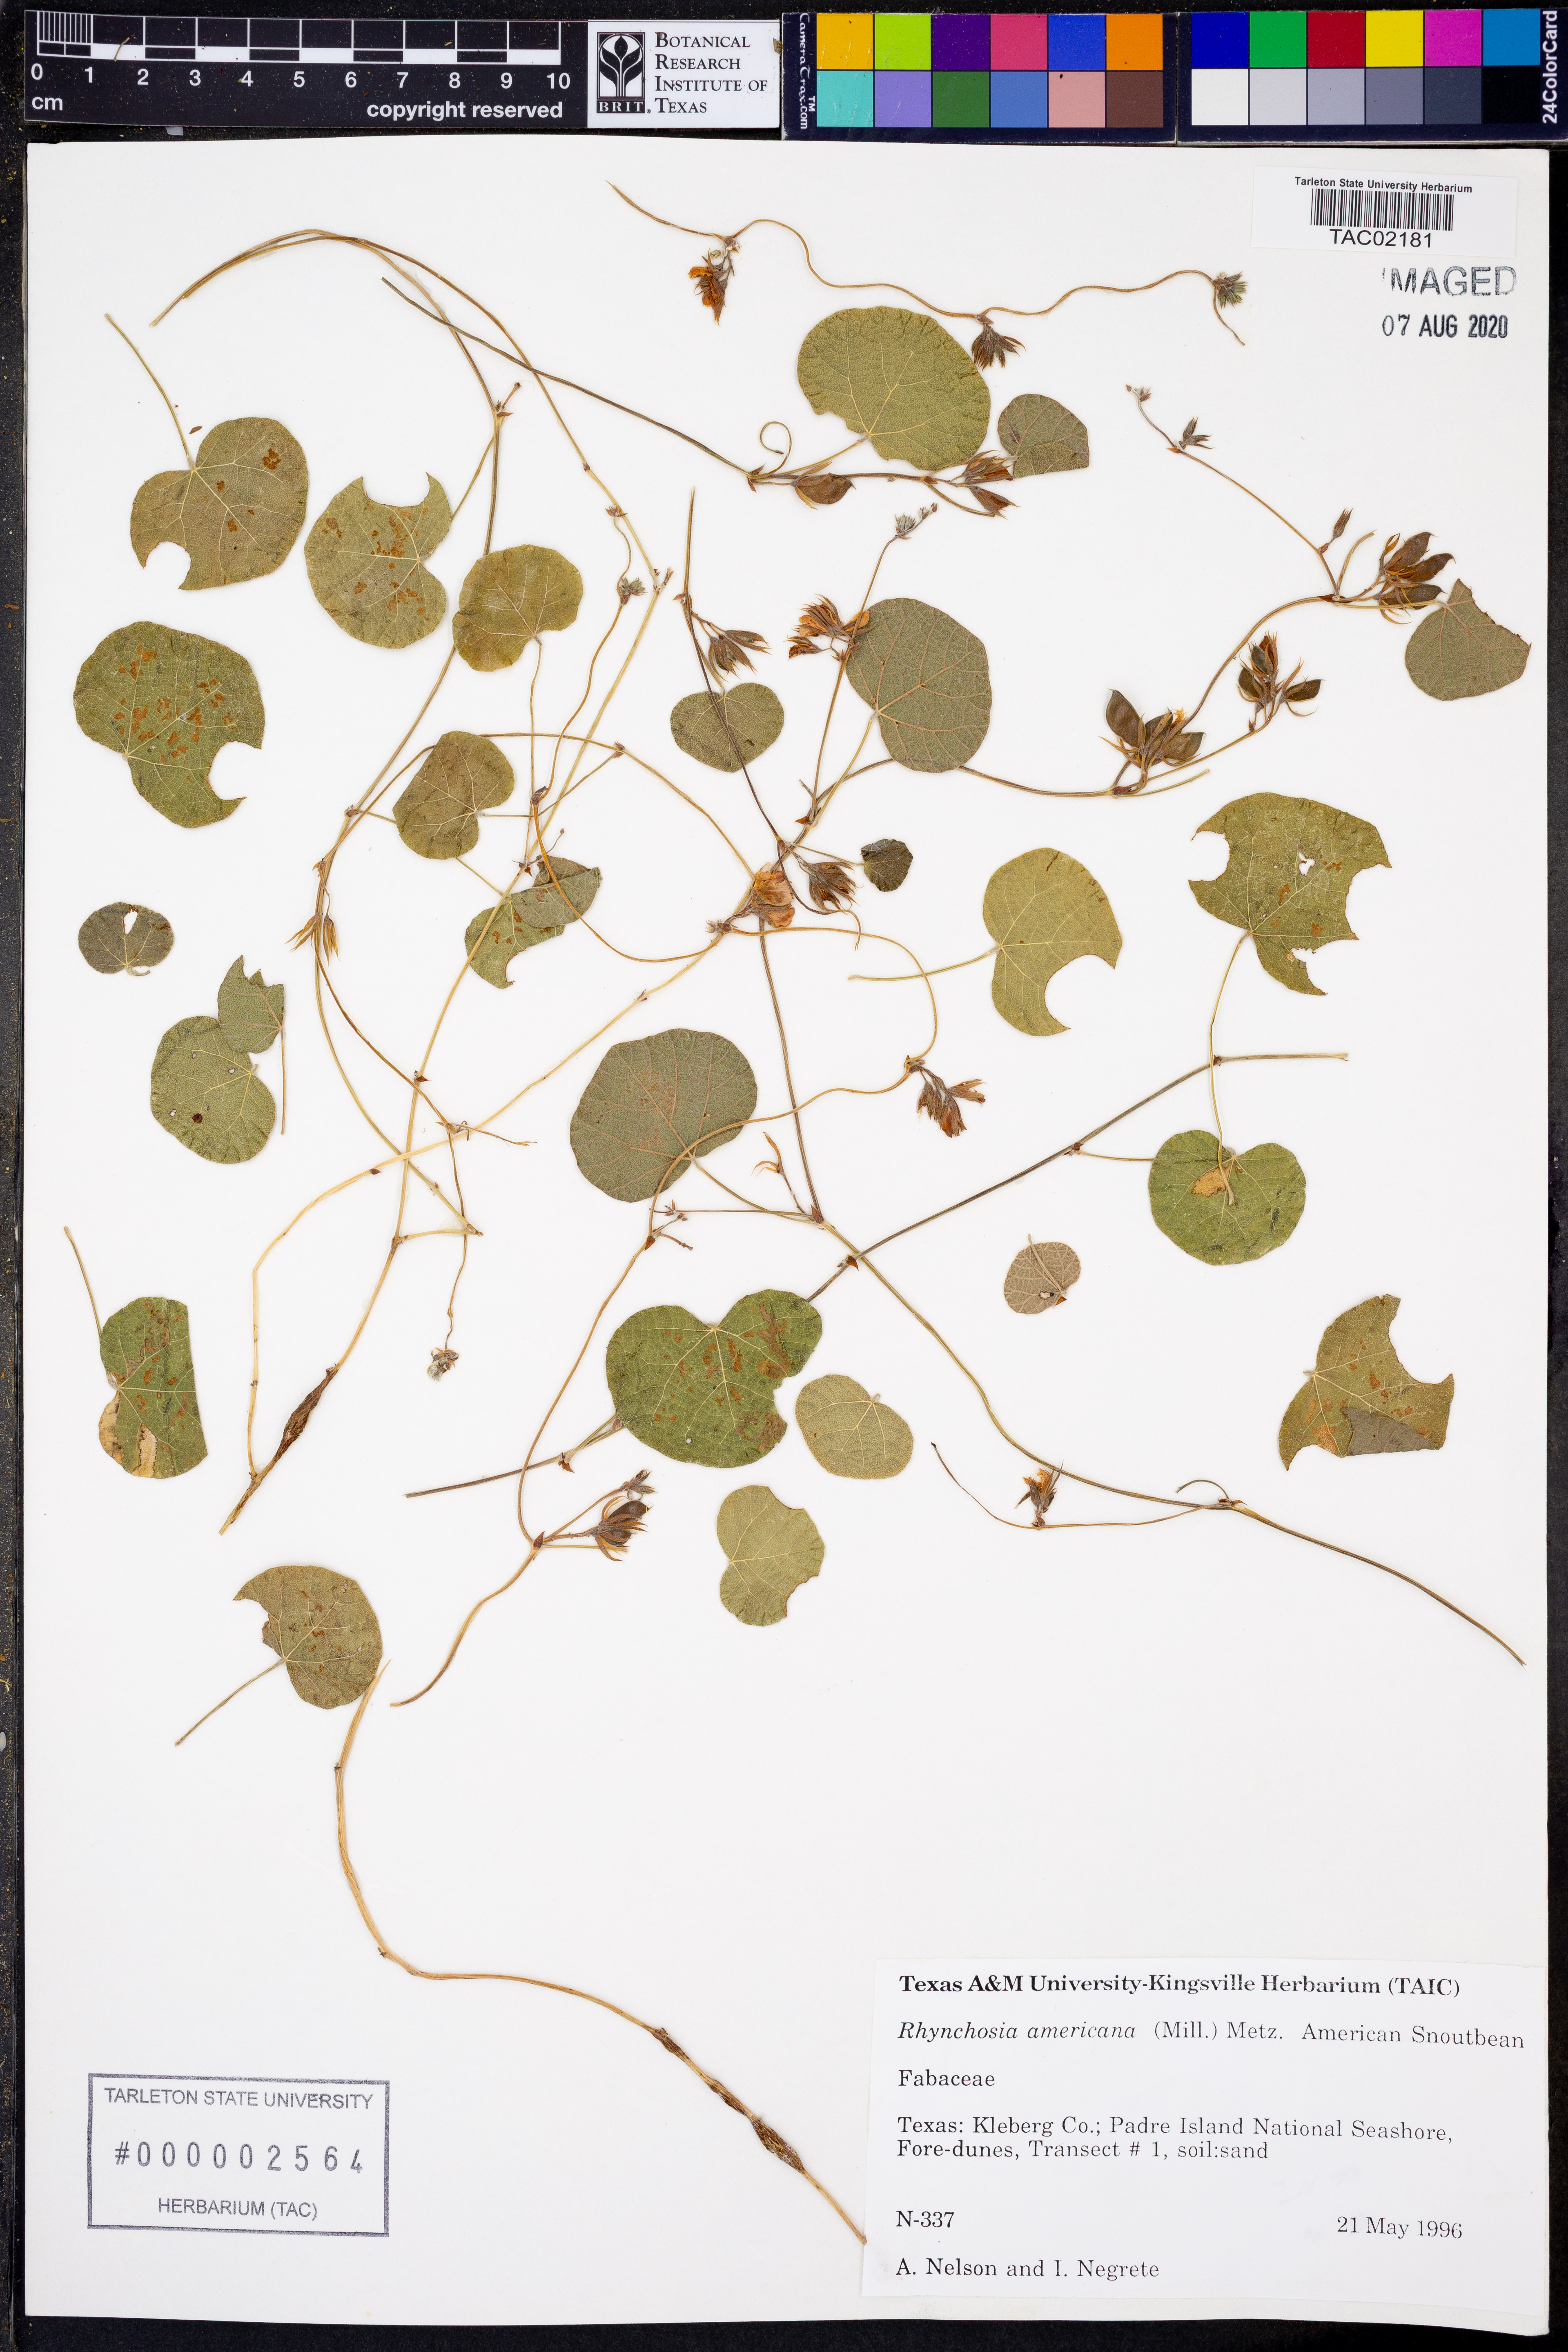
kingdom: Plantae
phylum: Tracheophyta
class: Magnoliopsida
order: Fabales
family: Fabaceae
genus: Rhynchosia
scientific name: Rhynchosia americana
